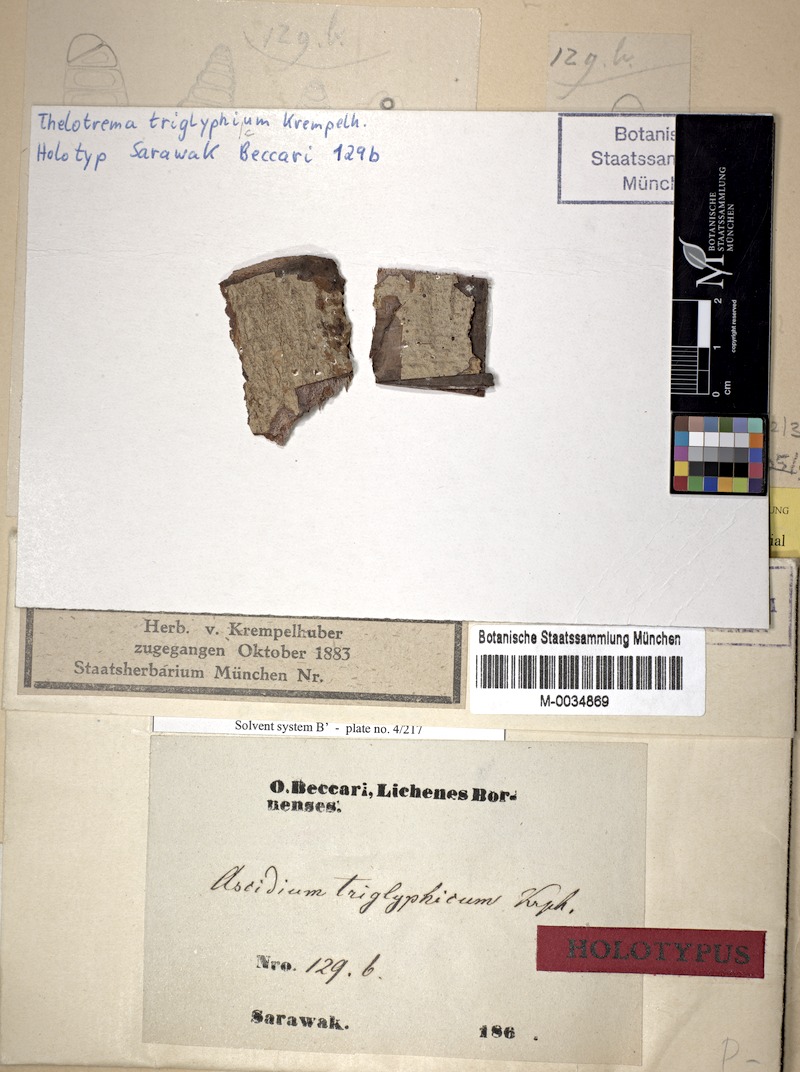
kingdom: Fungi
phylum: Ascomycota
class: Lecanoromycetes
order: Ostropales
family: Graphidaceae
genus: Ocellularia
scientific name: Ocellularia
